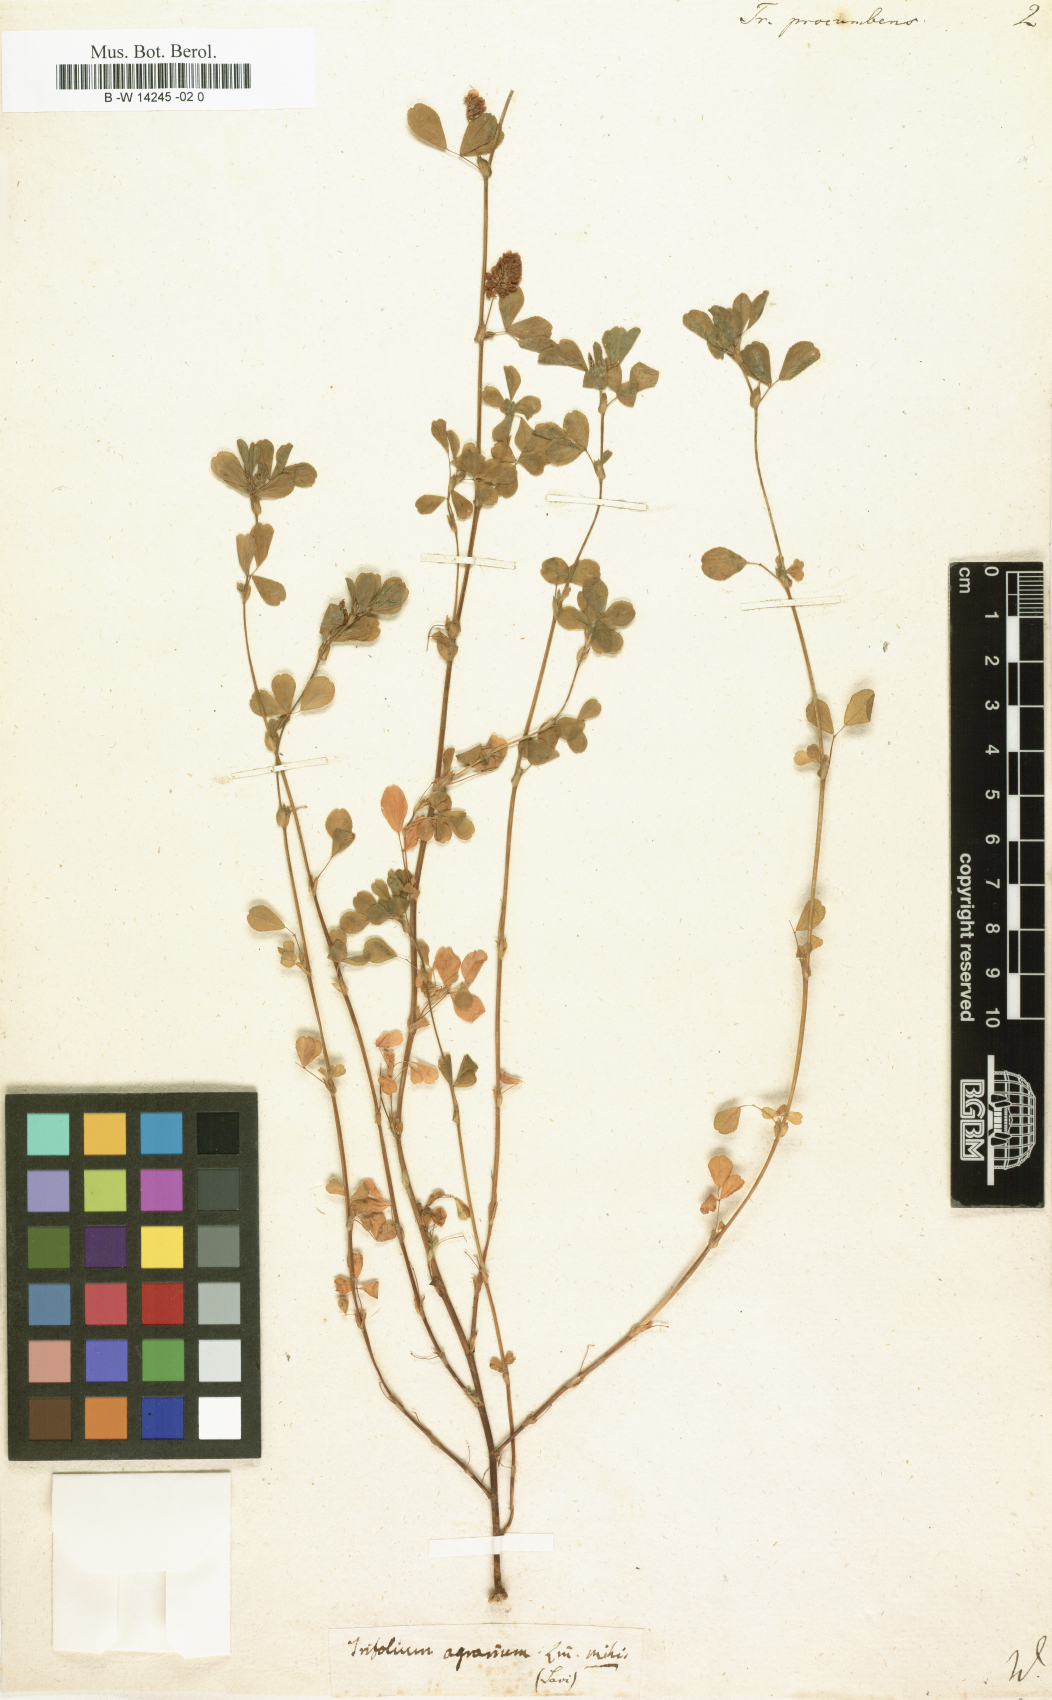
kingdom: Plantae
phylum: Tracheophyta
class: Magnoliopsida
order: Fabales
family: Fabaceae
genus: Trifolium
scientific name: Trifolium micranthum
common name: Slender trefoil
